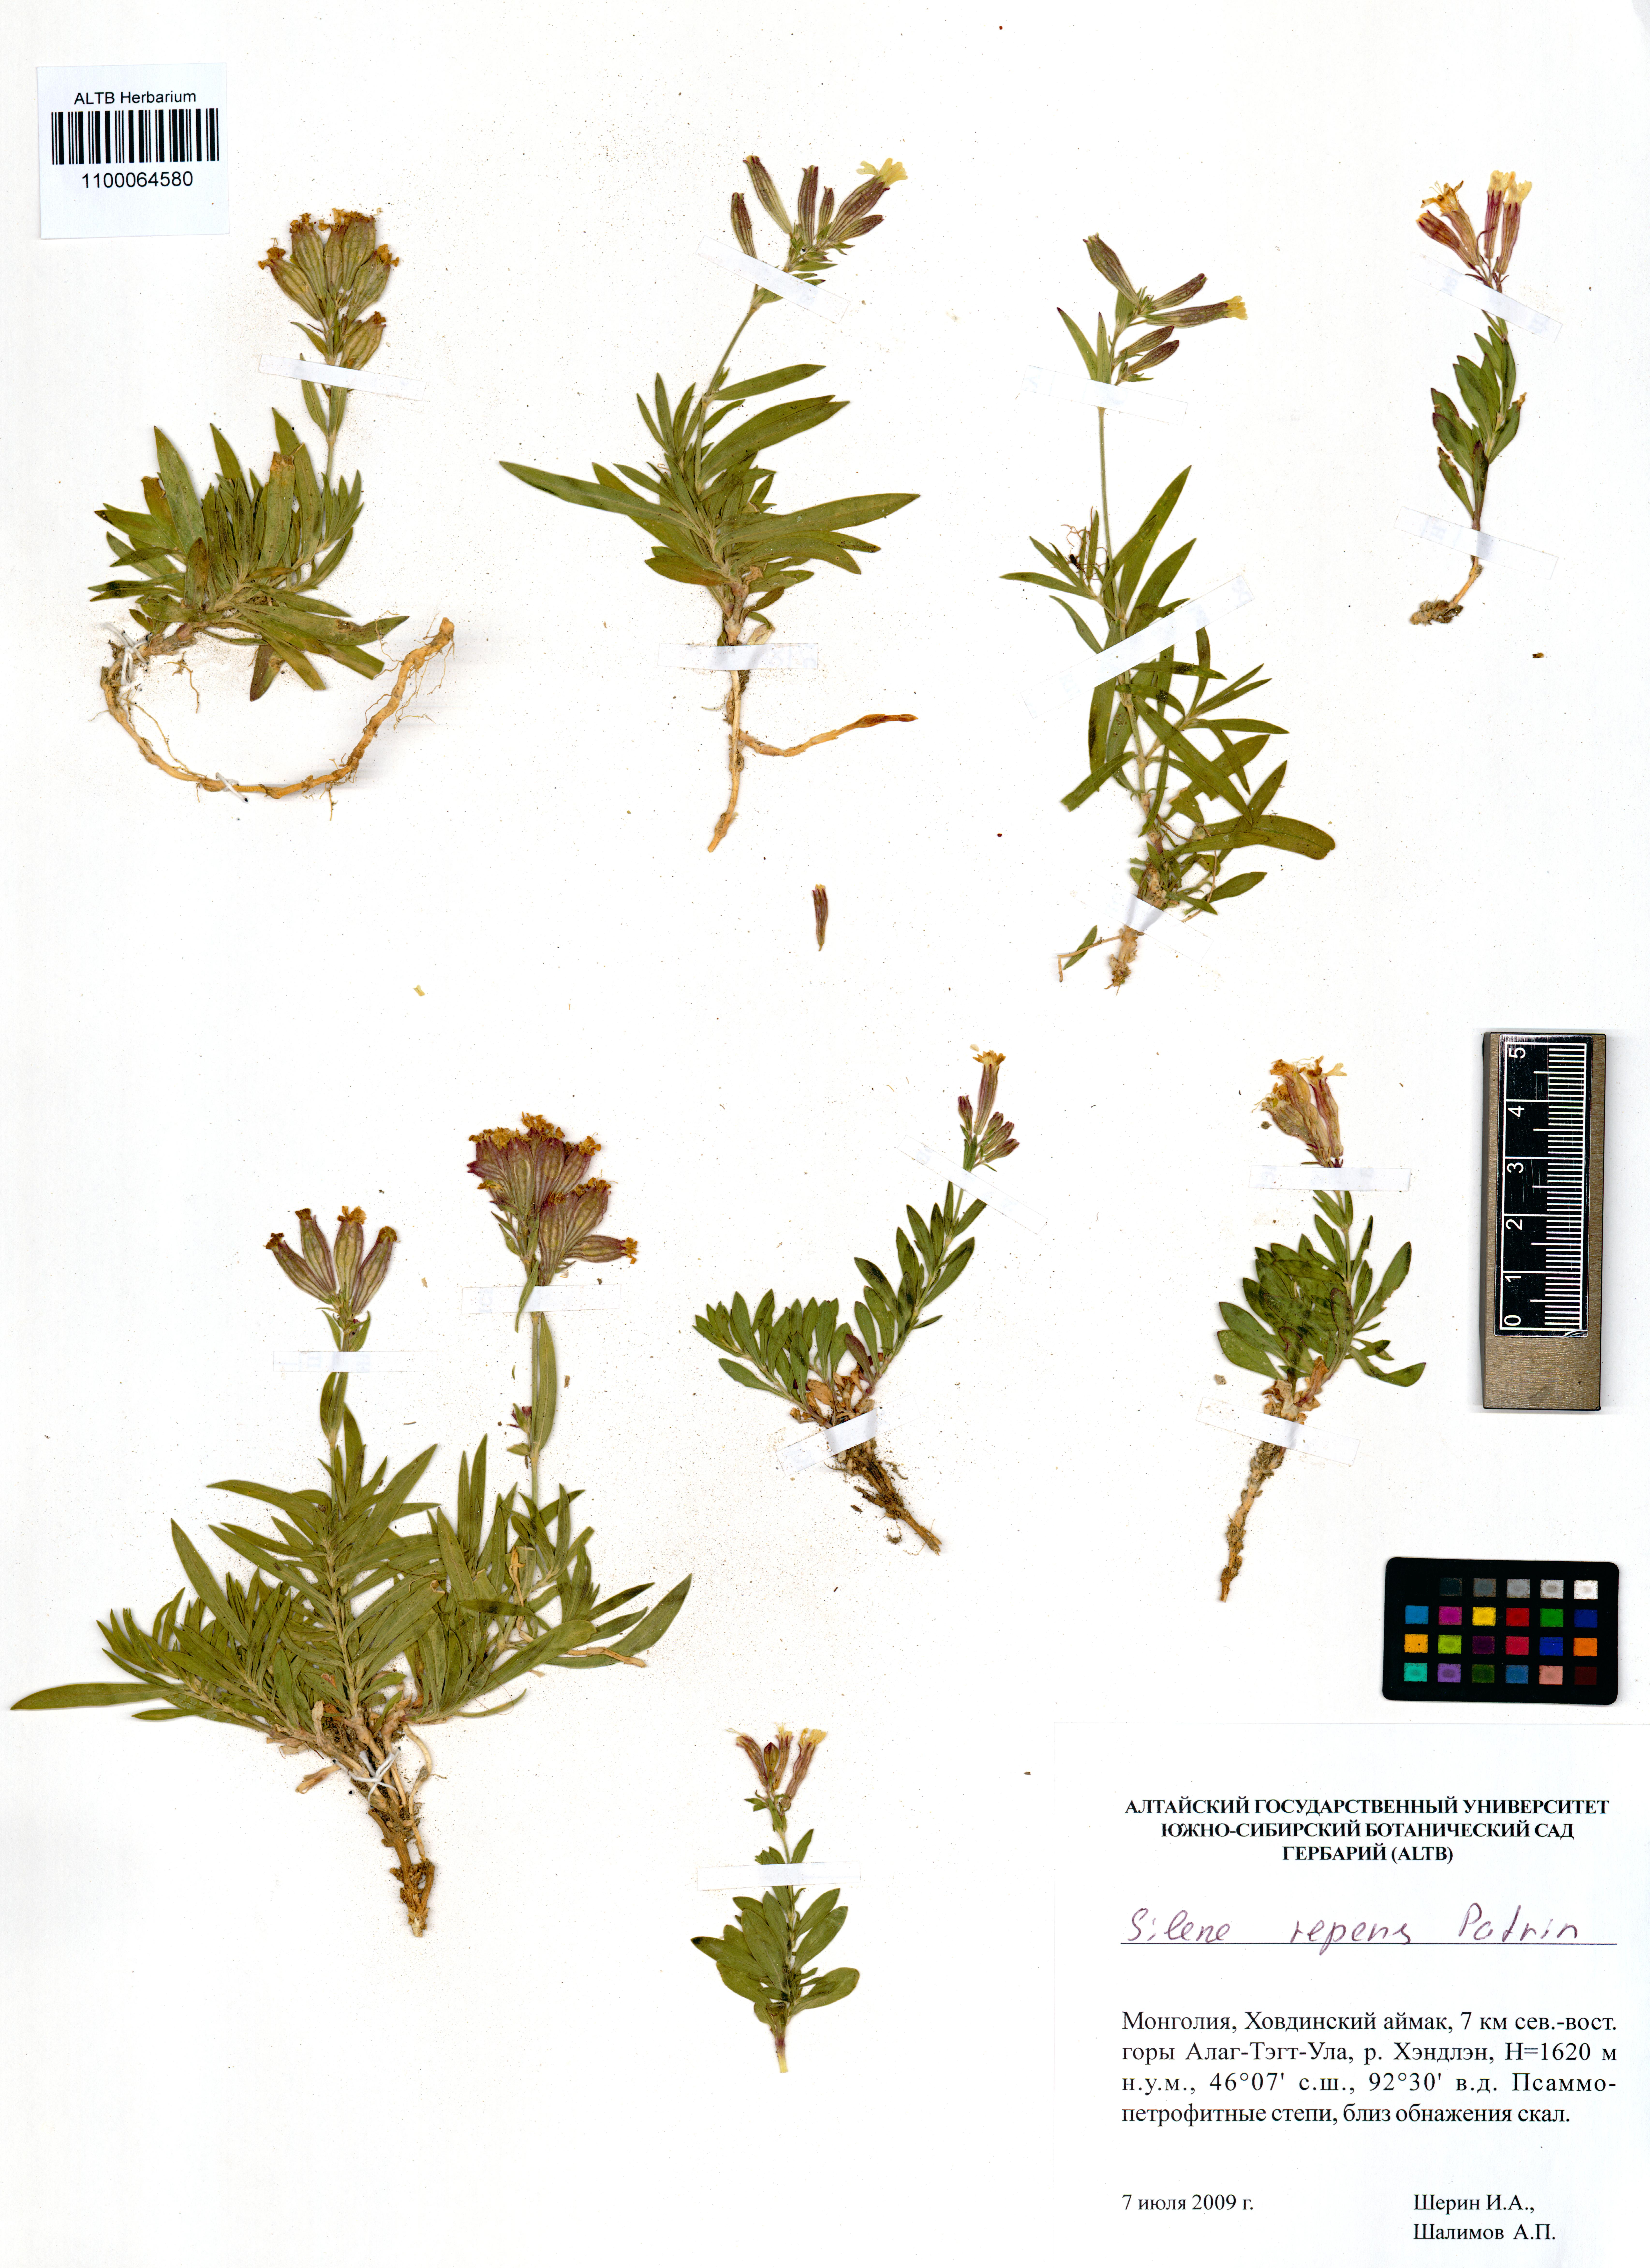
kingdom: Plantae
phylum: Tracheophyta
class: Magnoliopsida
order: Caryophyllales
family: Caryophyllaceae
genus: Silene
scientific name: Silene repens
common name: Pink campion
